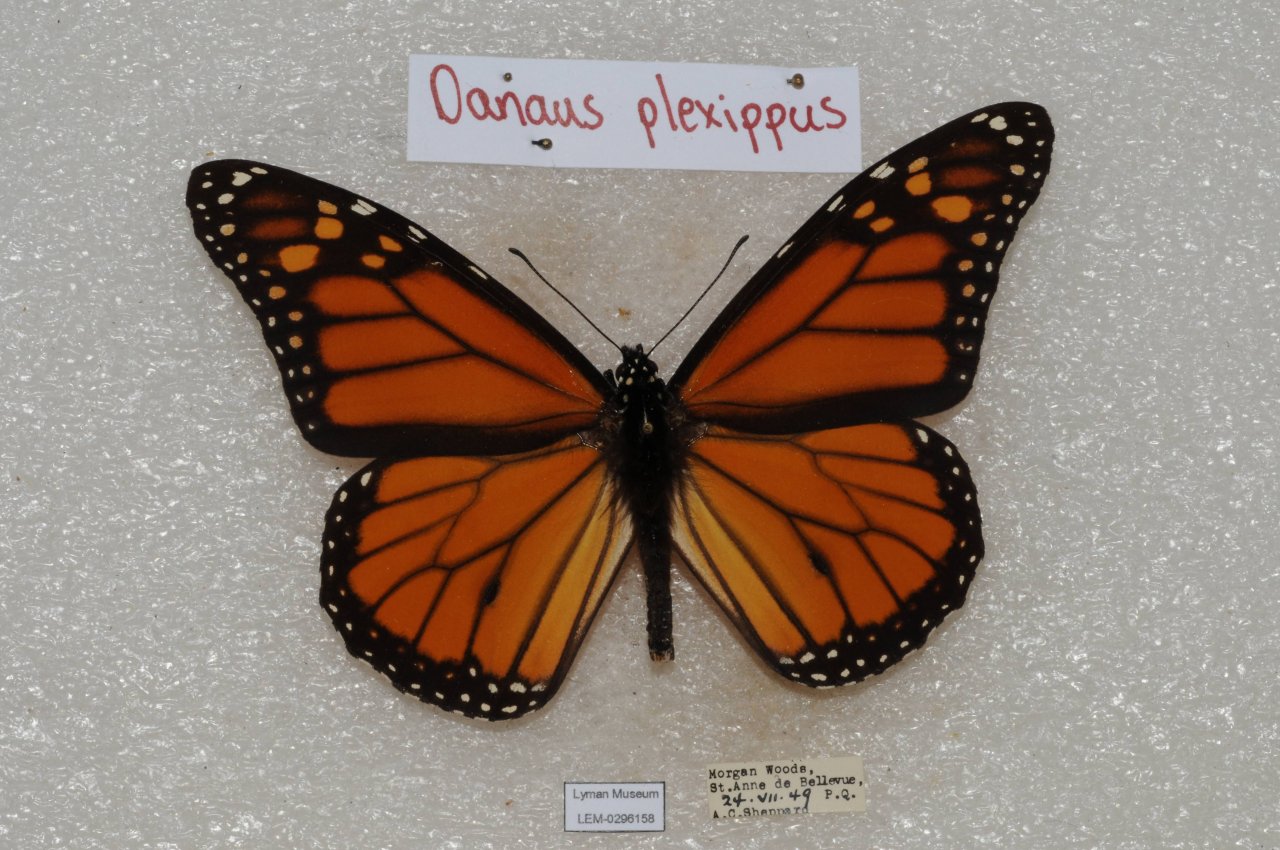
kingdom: Animalia
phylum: Arthropoda
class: Insecta
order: Lepidoptera
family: Nymphalidae
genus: Danaus
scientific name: Danaus plexippus
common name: Monarch
